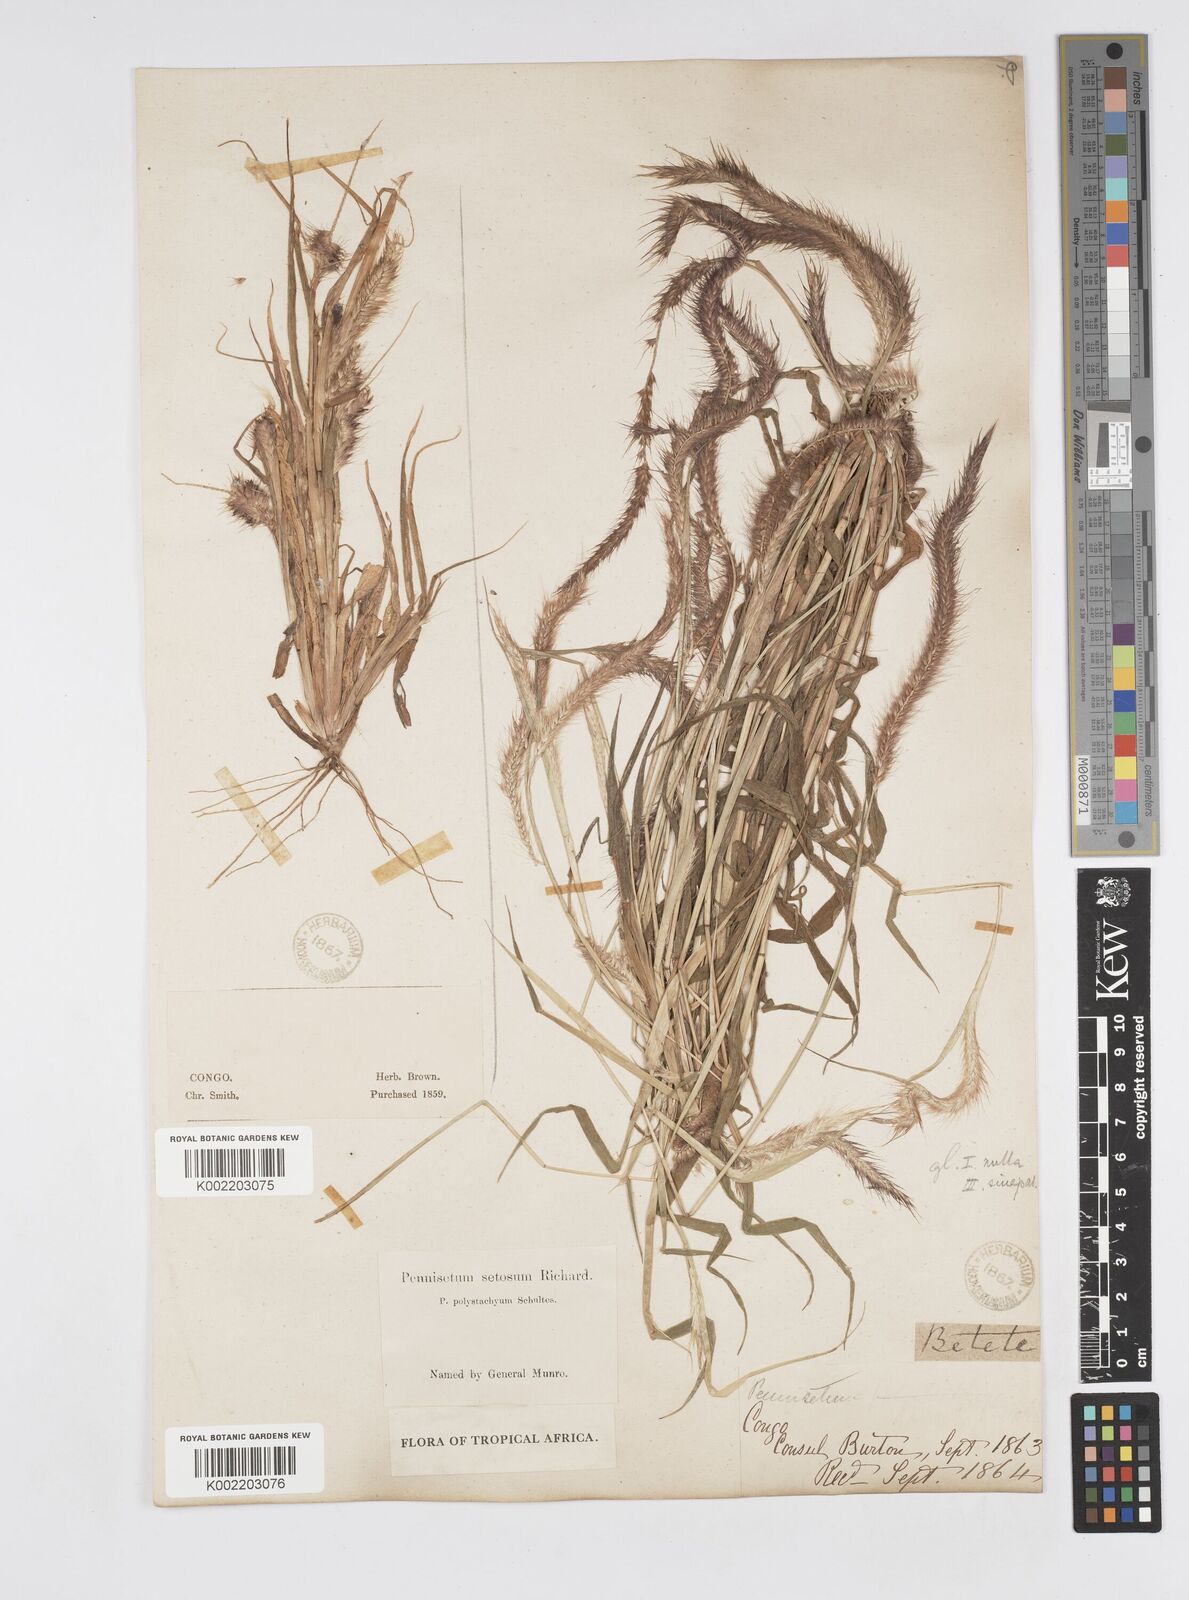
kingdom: Plantae
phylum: Tracheophyta
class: Liliopsida
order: Poales
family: Poaceae
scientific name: Poaceae
